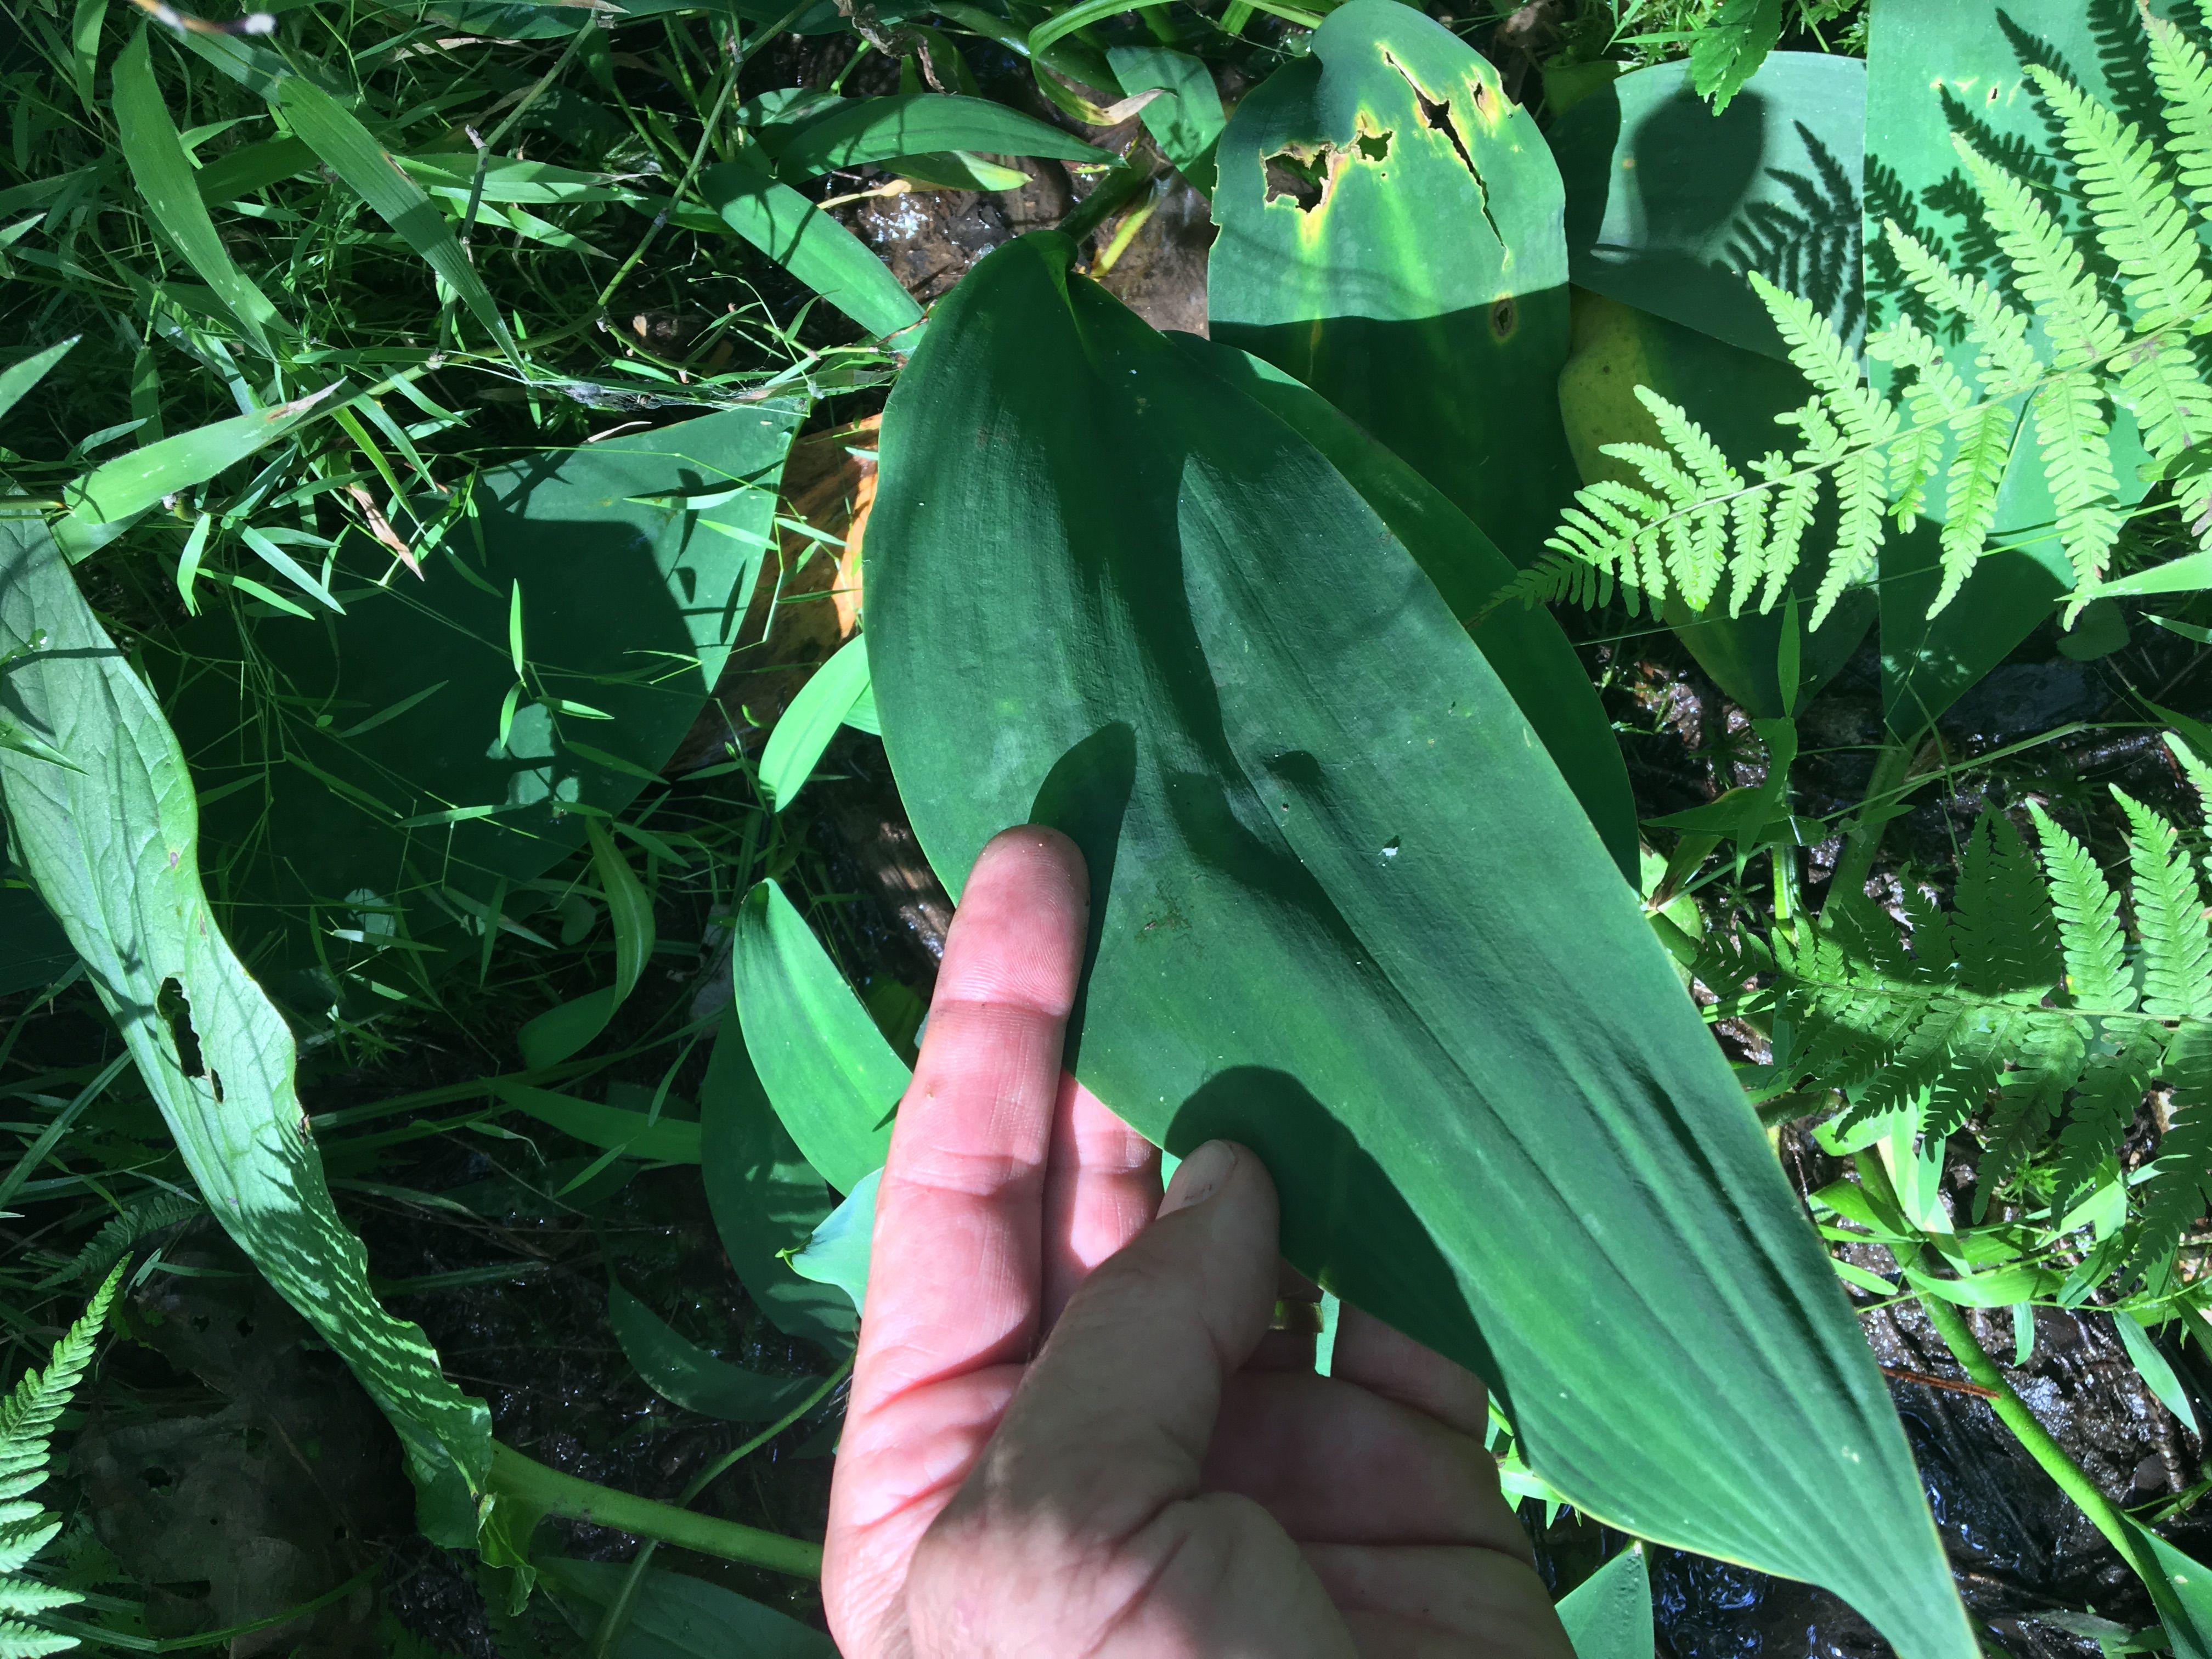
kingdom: Plantae
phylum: Tracheophyta
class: Liliopsida
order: Alismatales
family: Araceae
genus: Orontium
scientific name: Orontium aquaticum
